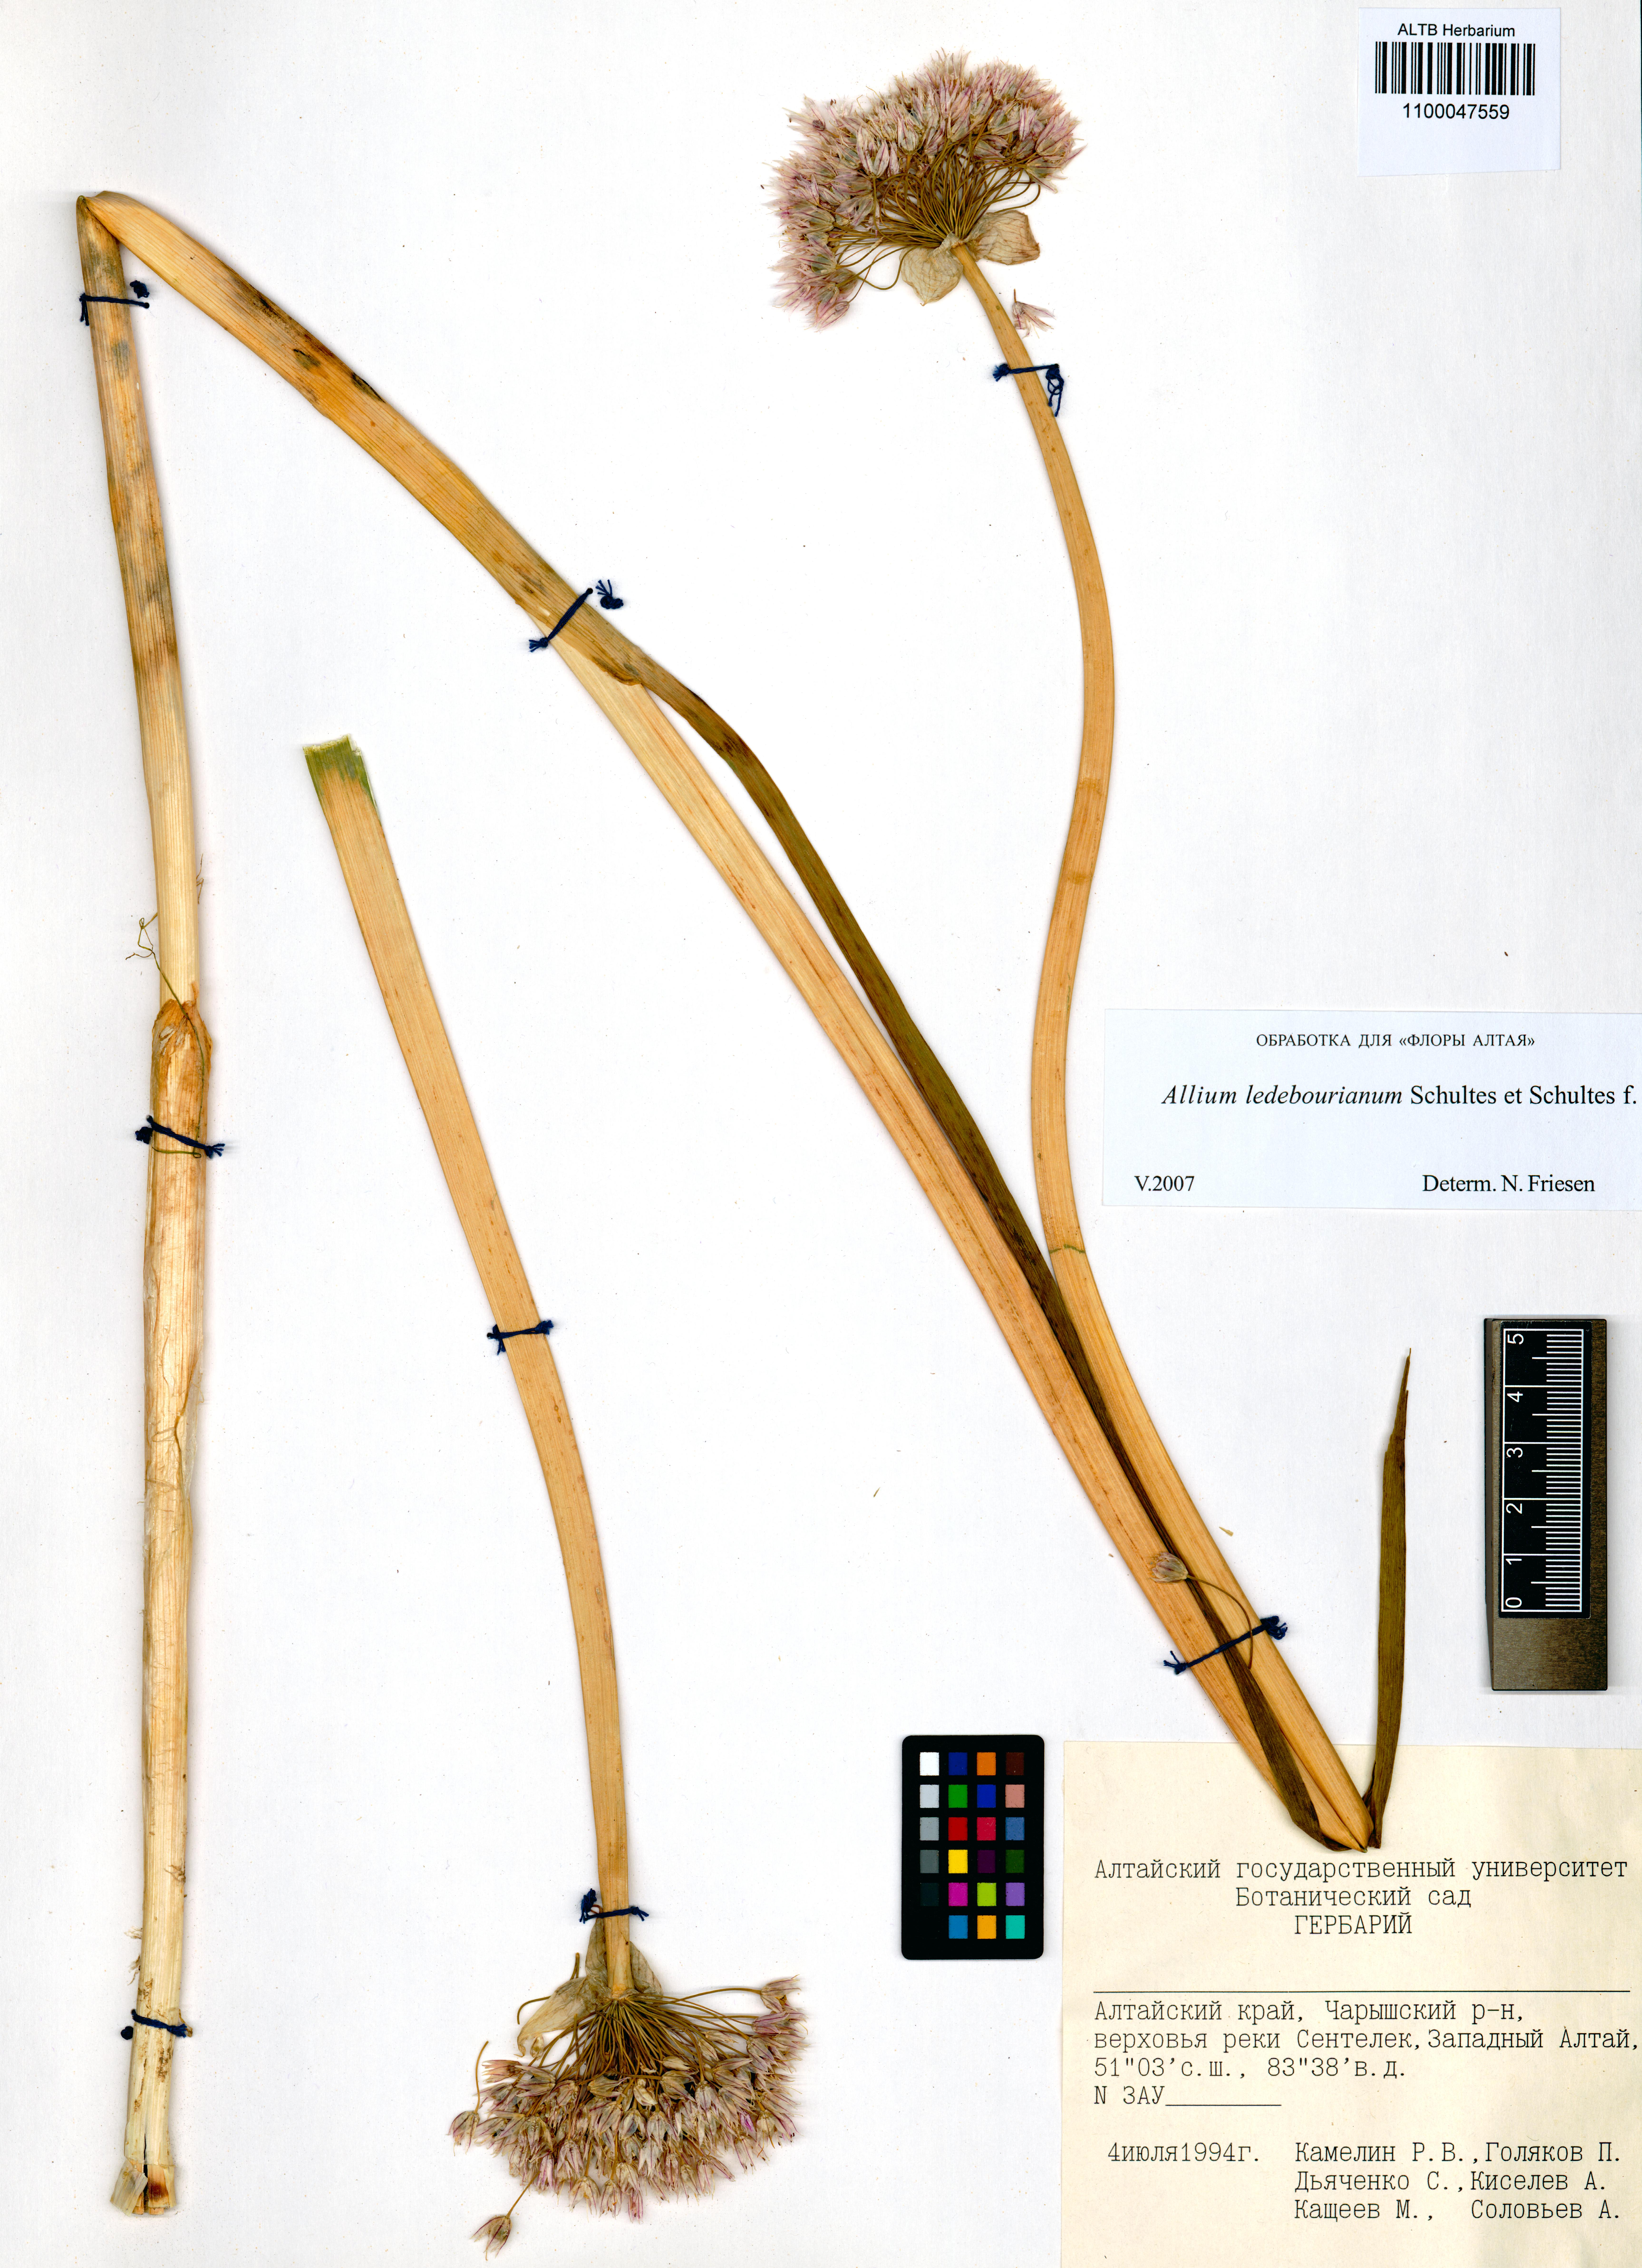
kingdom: Plantae
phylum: Tracheophyta
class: Liliopsida
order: Asparagales
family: Amaryllidaceae
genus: Allium
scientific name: Allium ledebourianum
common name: Ledebour chive
